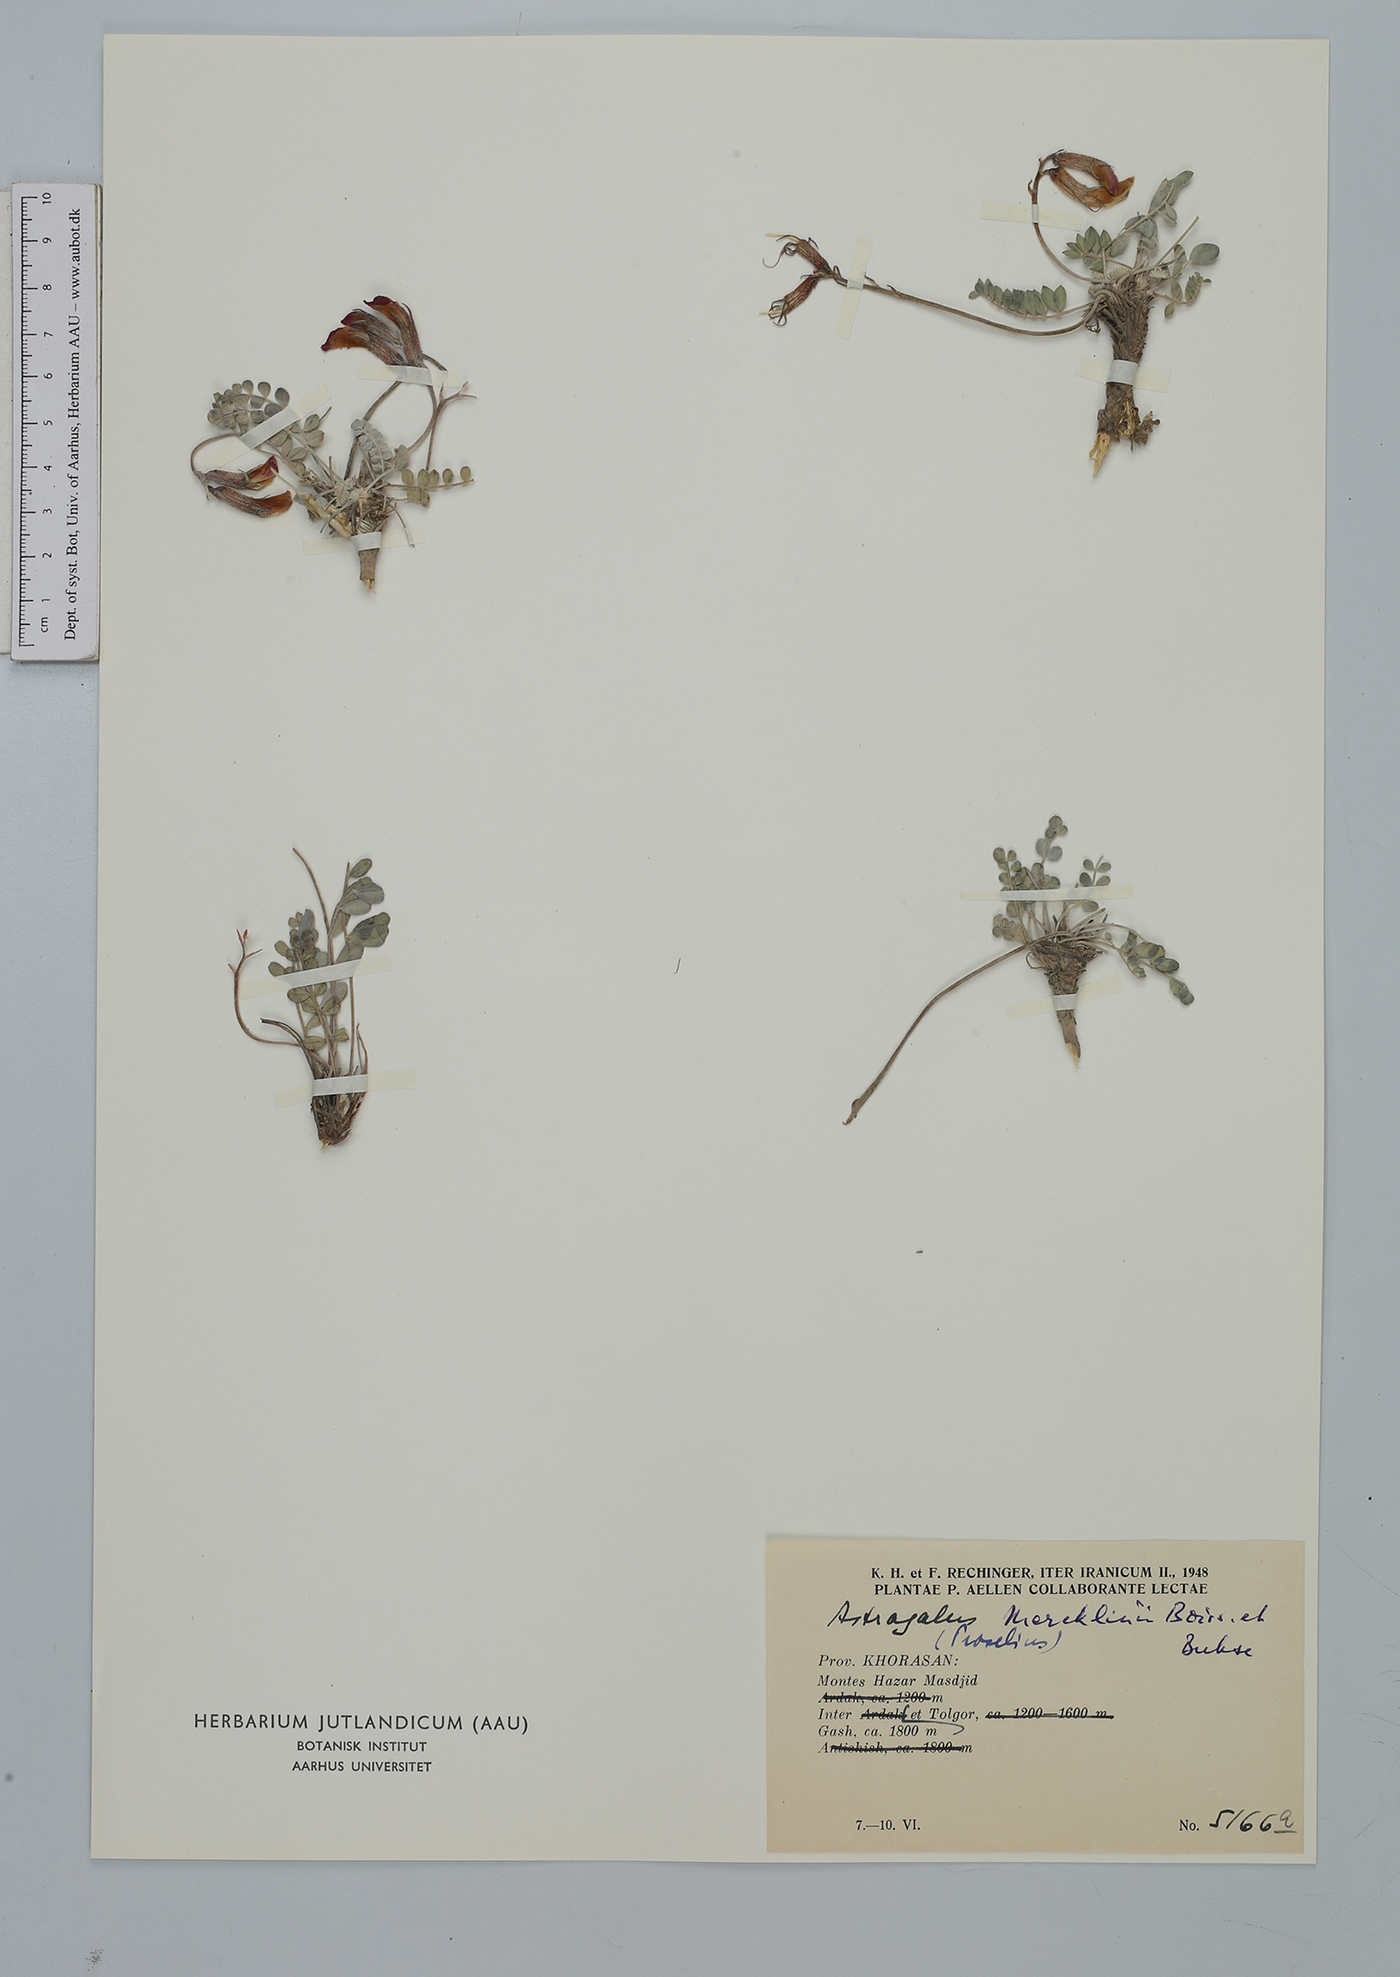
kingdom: Plantae
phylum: Tracheophyta
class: Magnoliopsida
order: Fabales
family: Fabaceae
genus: Astragalus
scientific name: Astragalus mercklinii
